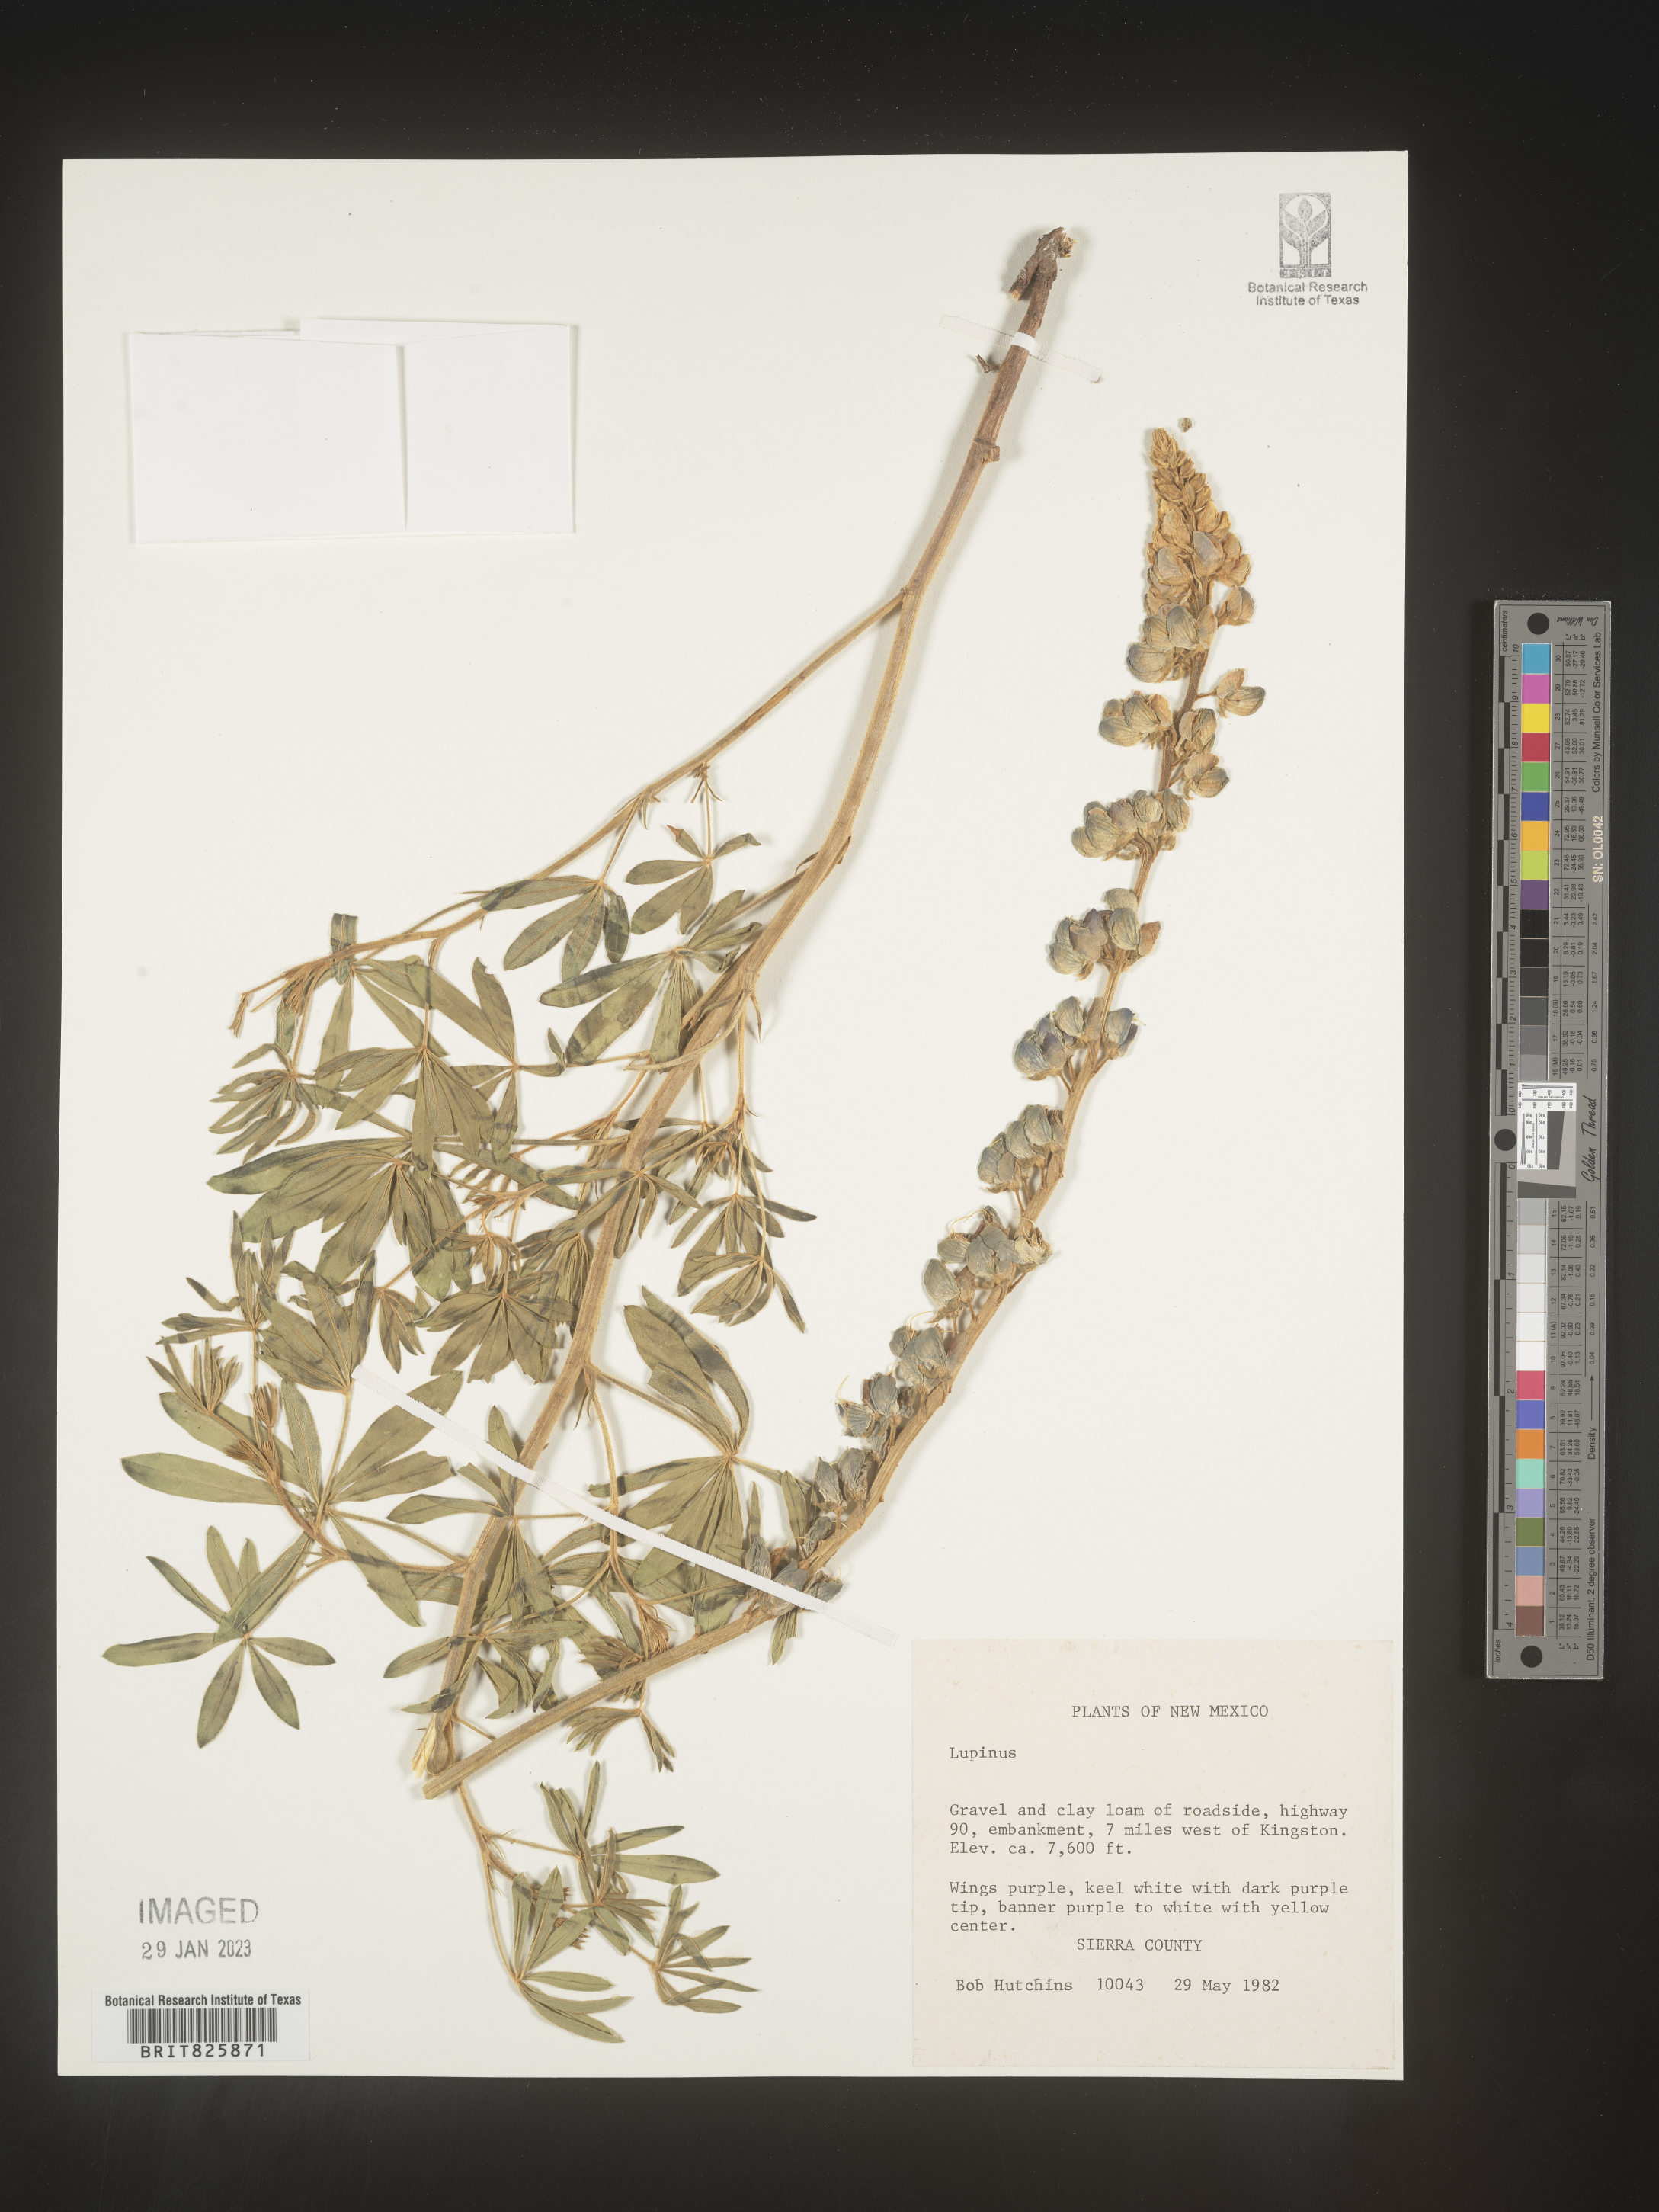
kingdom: Plantae
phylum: Tracheophyta
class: Magnoliopsida
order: Fabales
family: Fabaceae
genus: Lupinus
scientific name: Lupinus
